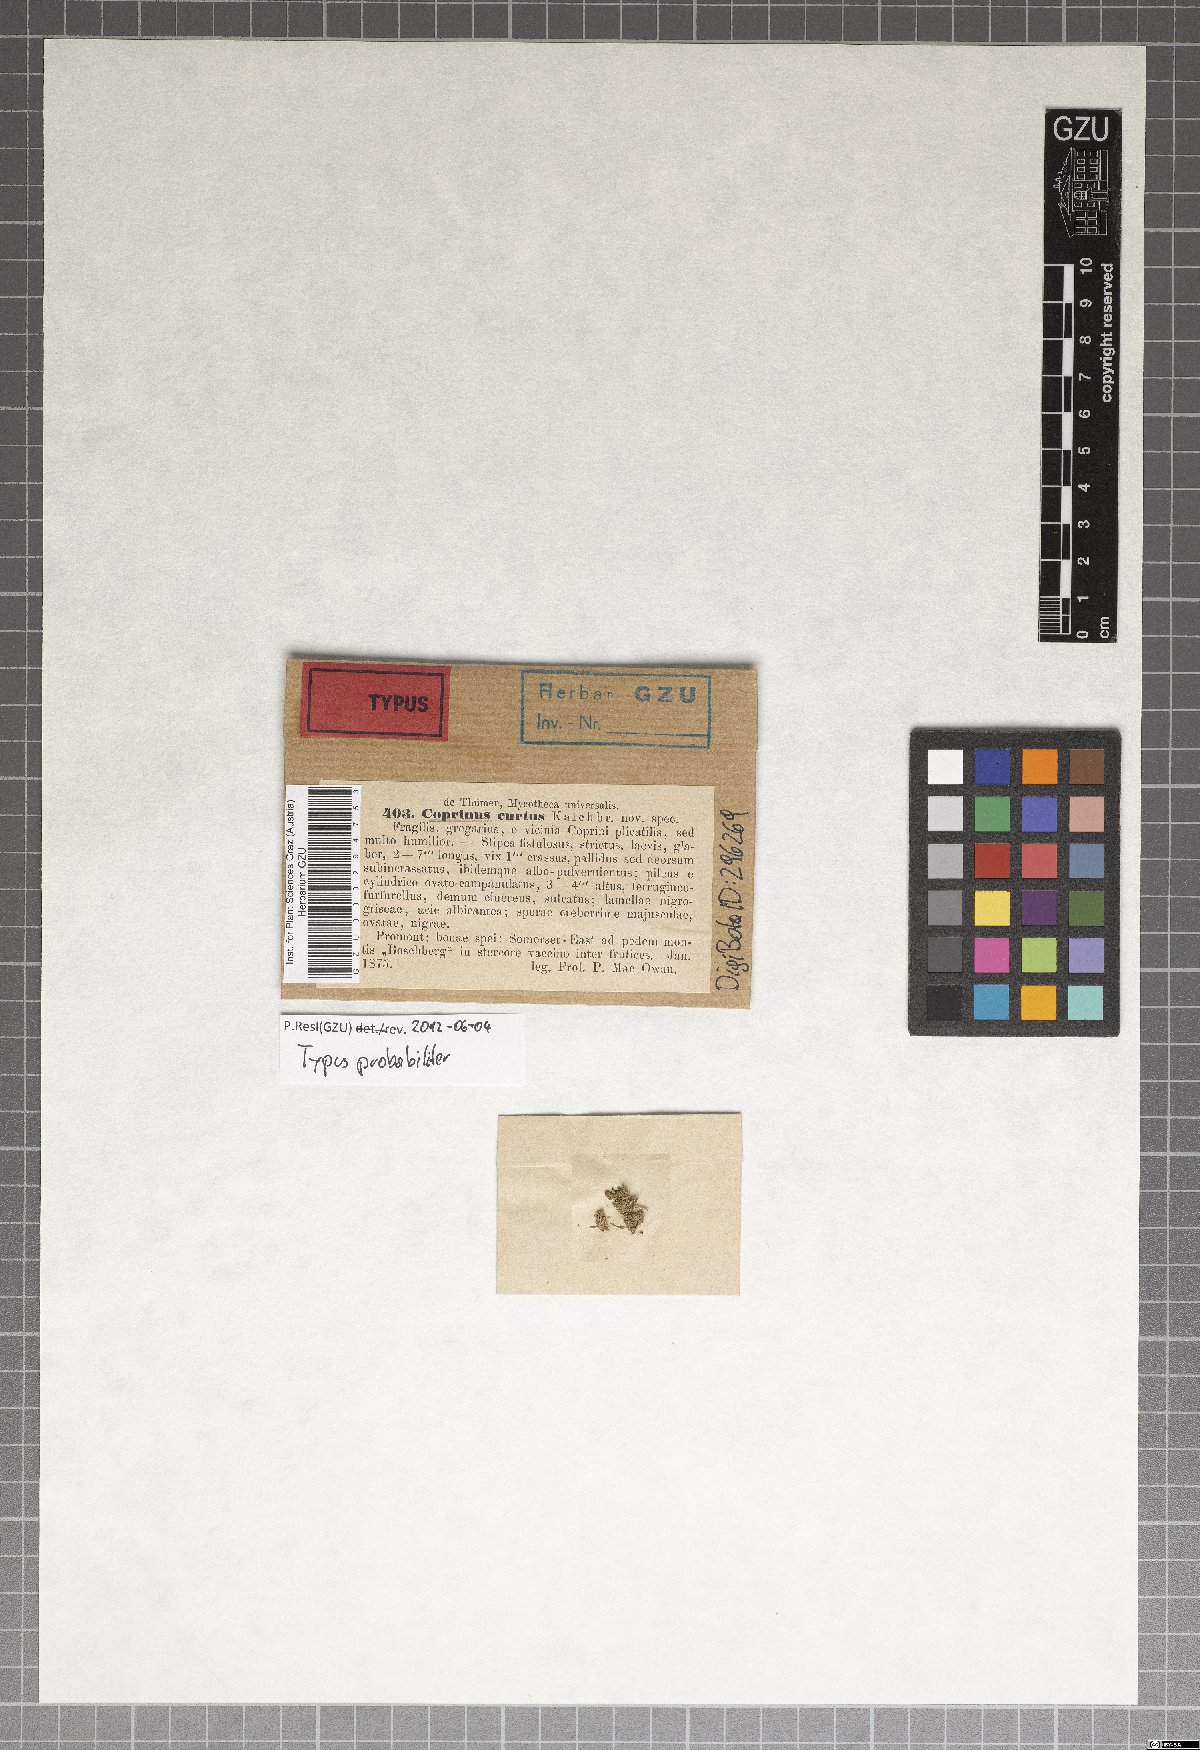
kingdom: Fungi
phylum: Basidiomycota
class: Agaricomycetes
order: Agaricales
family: Psathyrellaceae
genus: Coprinellus
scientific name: Coprinellus curtus
